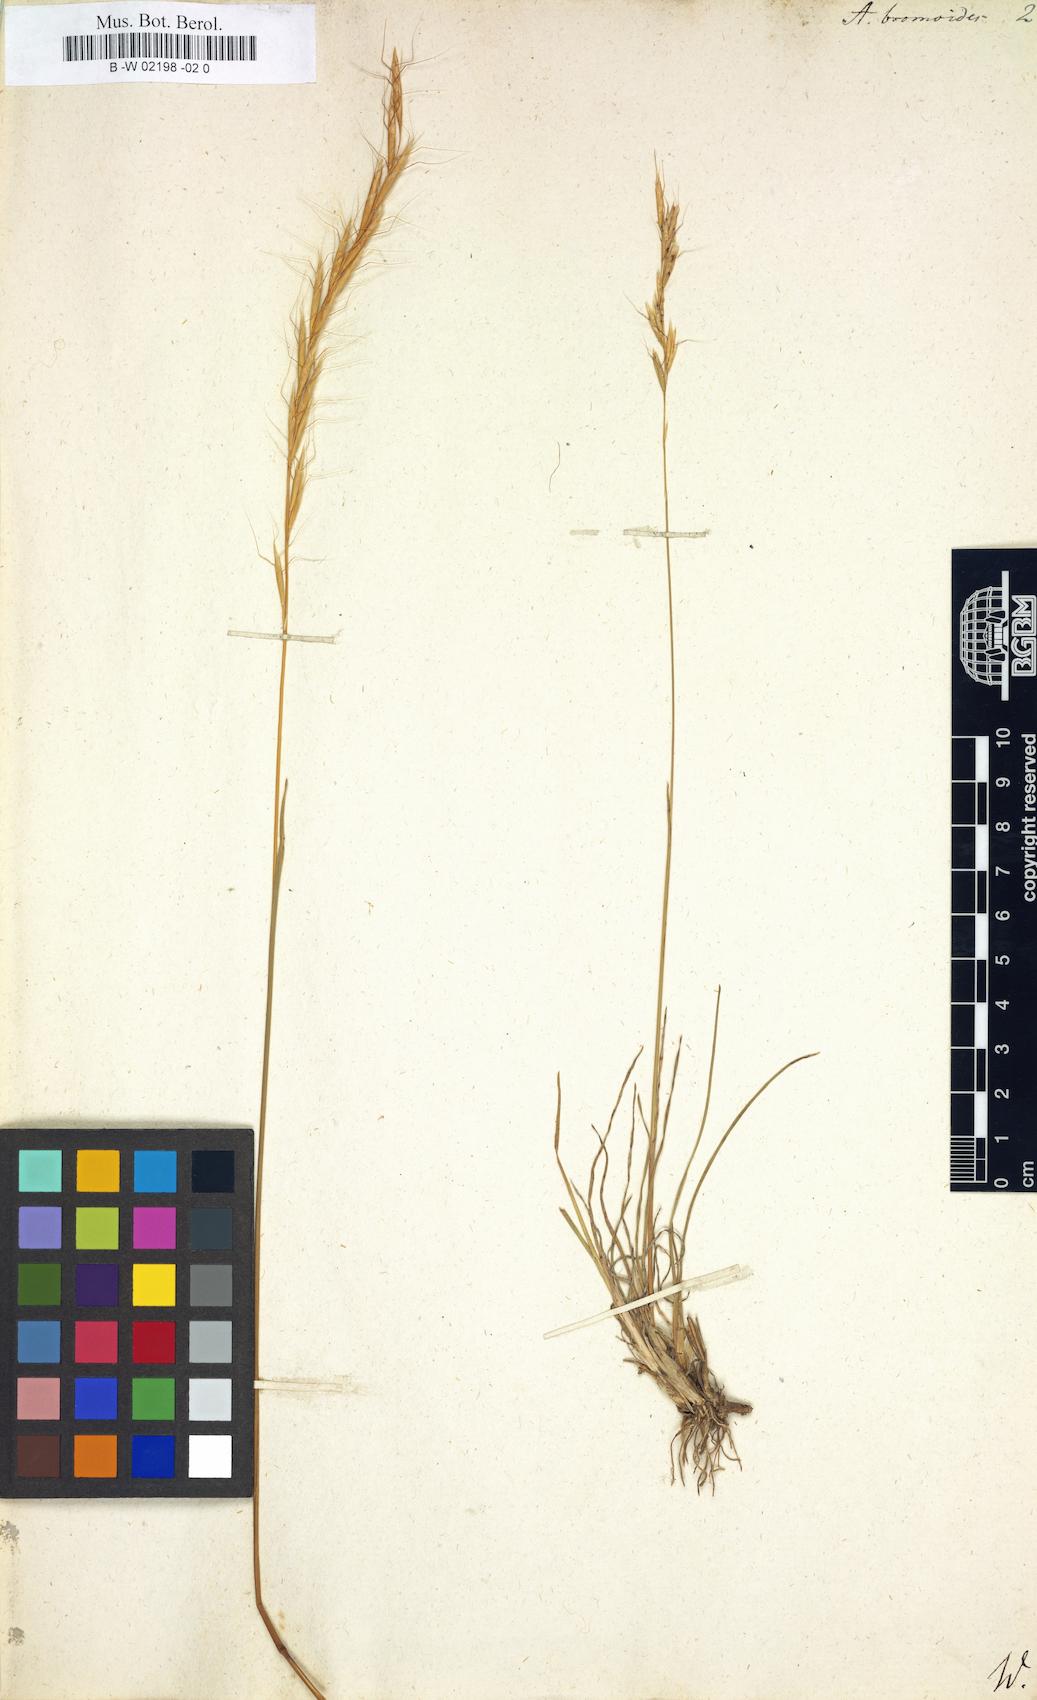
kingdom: Plantae
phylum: Tracheophyta
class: Liliopsida
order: Poales
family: Poaceae
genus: Helictochloa
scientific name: Helictochloa
